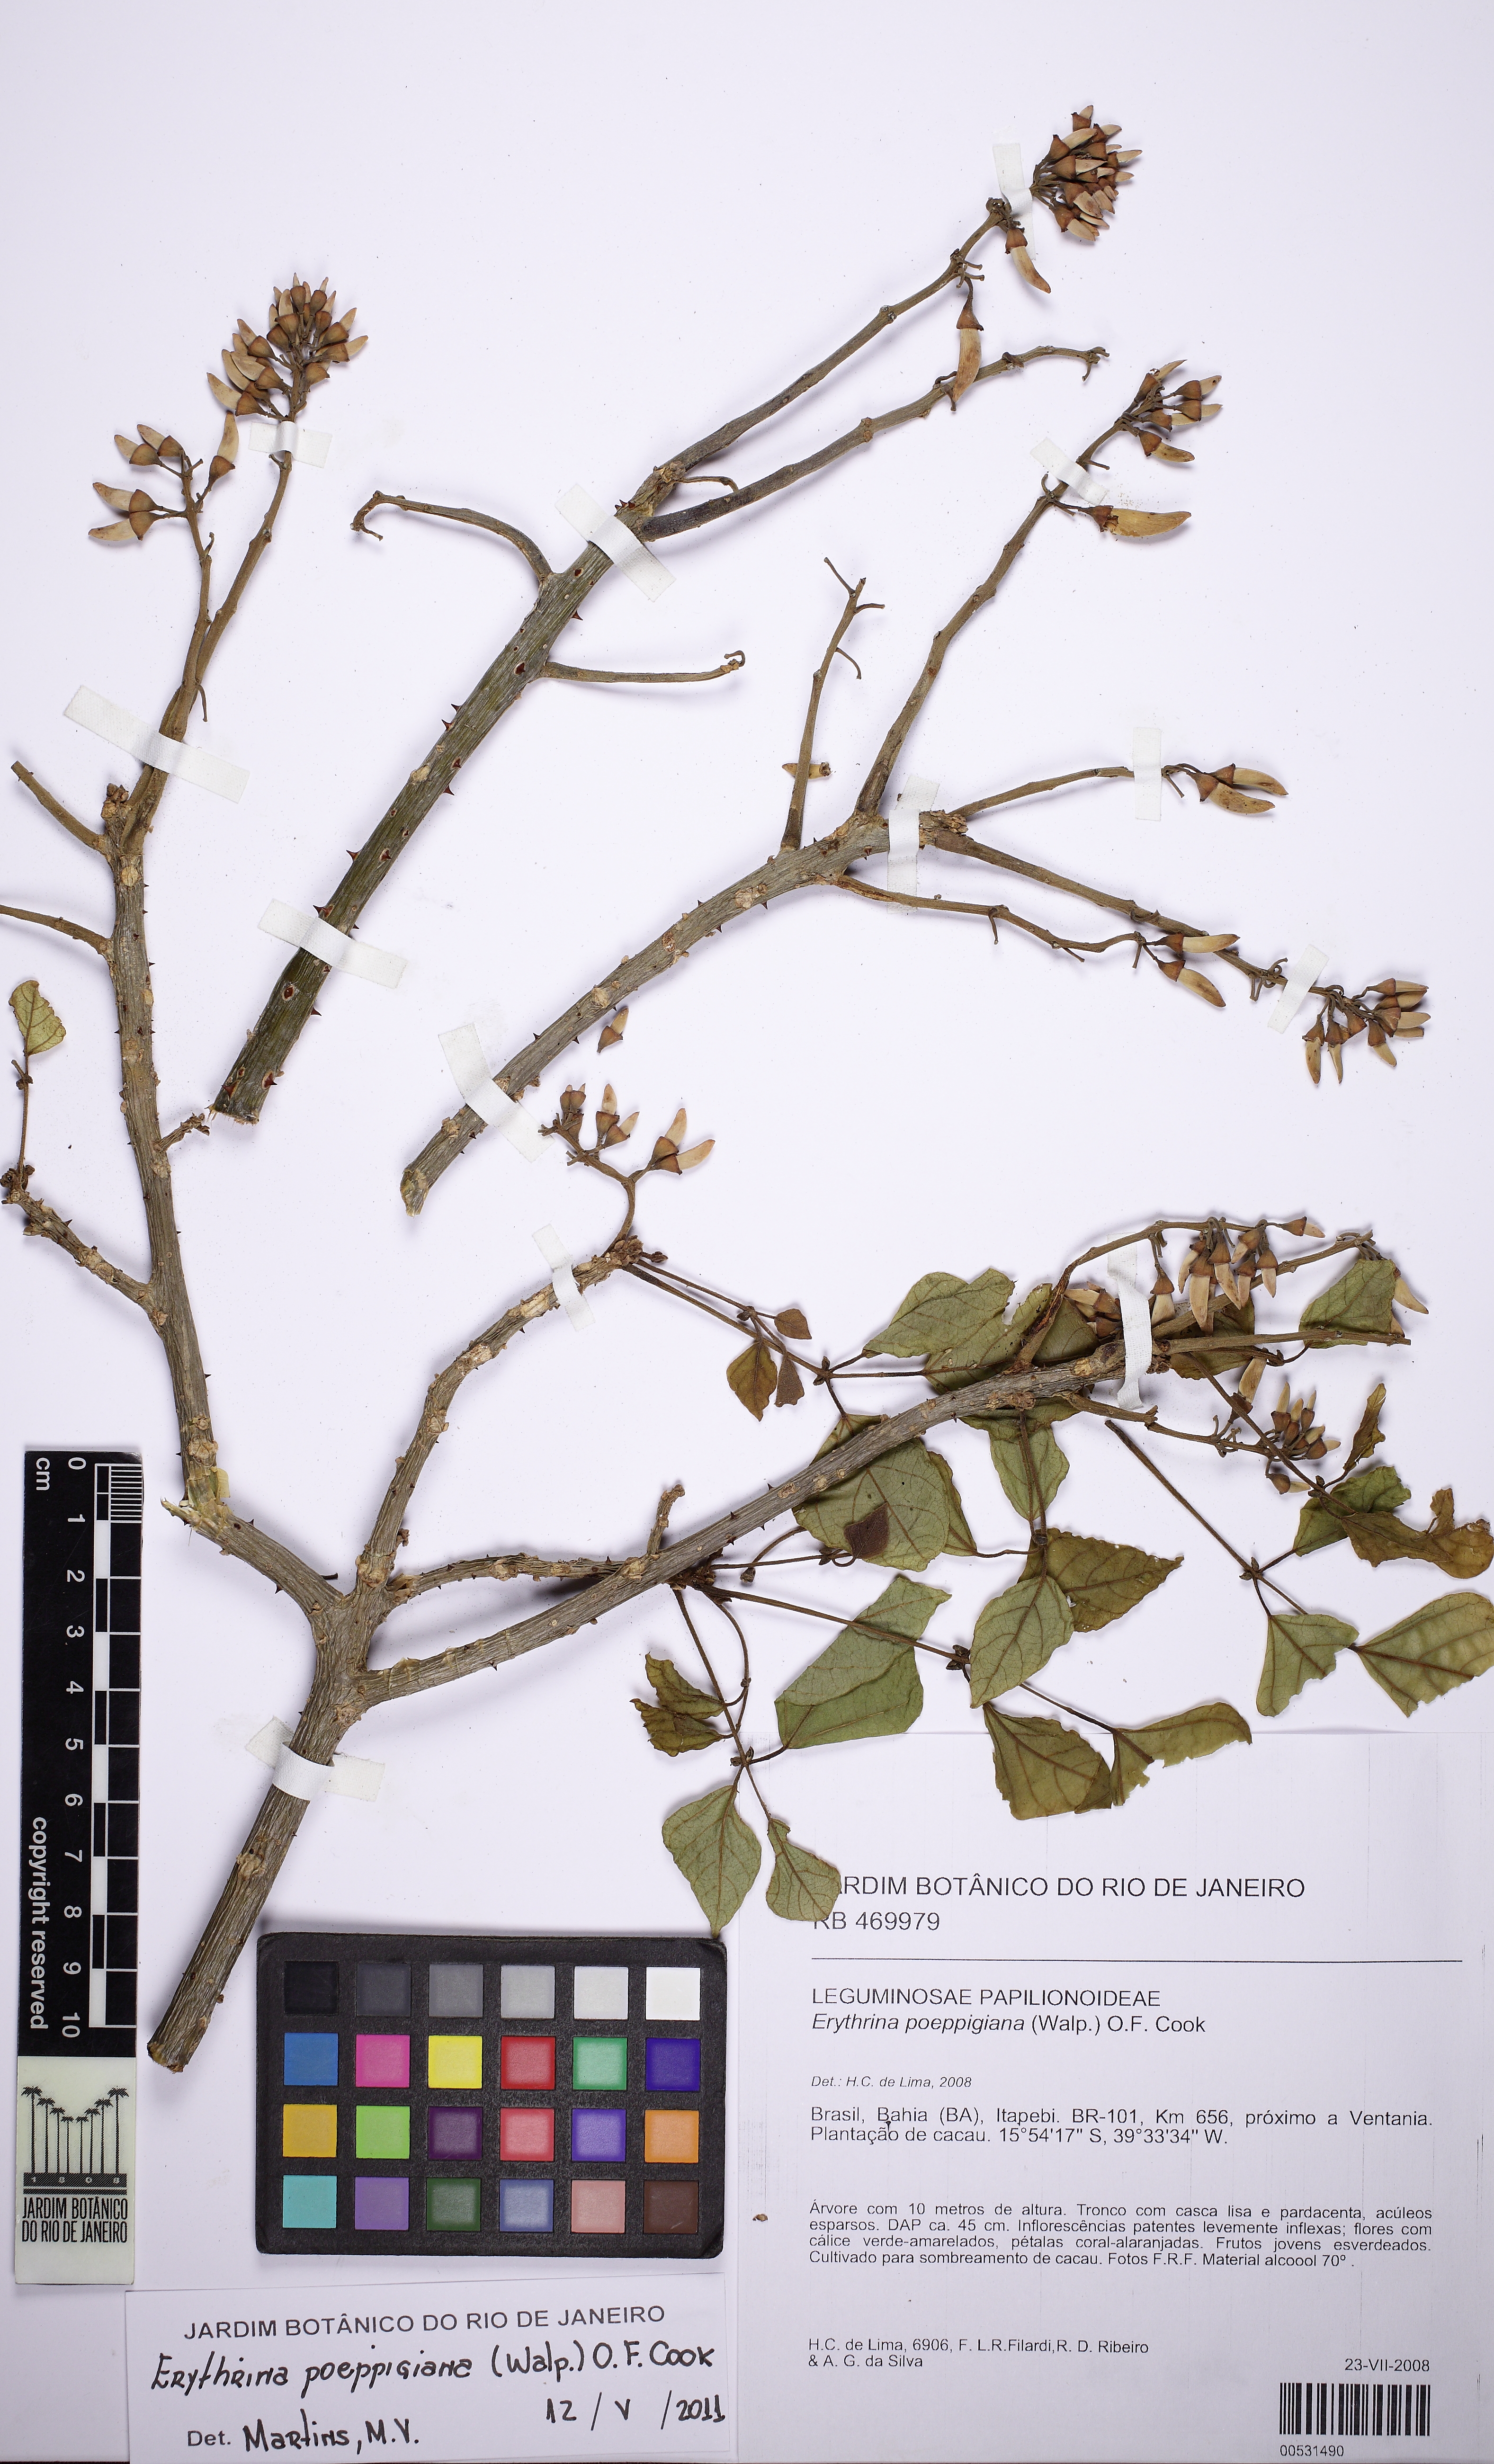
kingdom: Plantae
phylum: Tracheophyta
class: Magnoliopsida
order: Fabales
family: Fabaceae
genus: Erythrina
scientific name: Erythrina poeppigiana
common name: Coral tree
